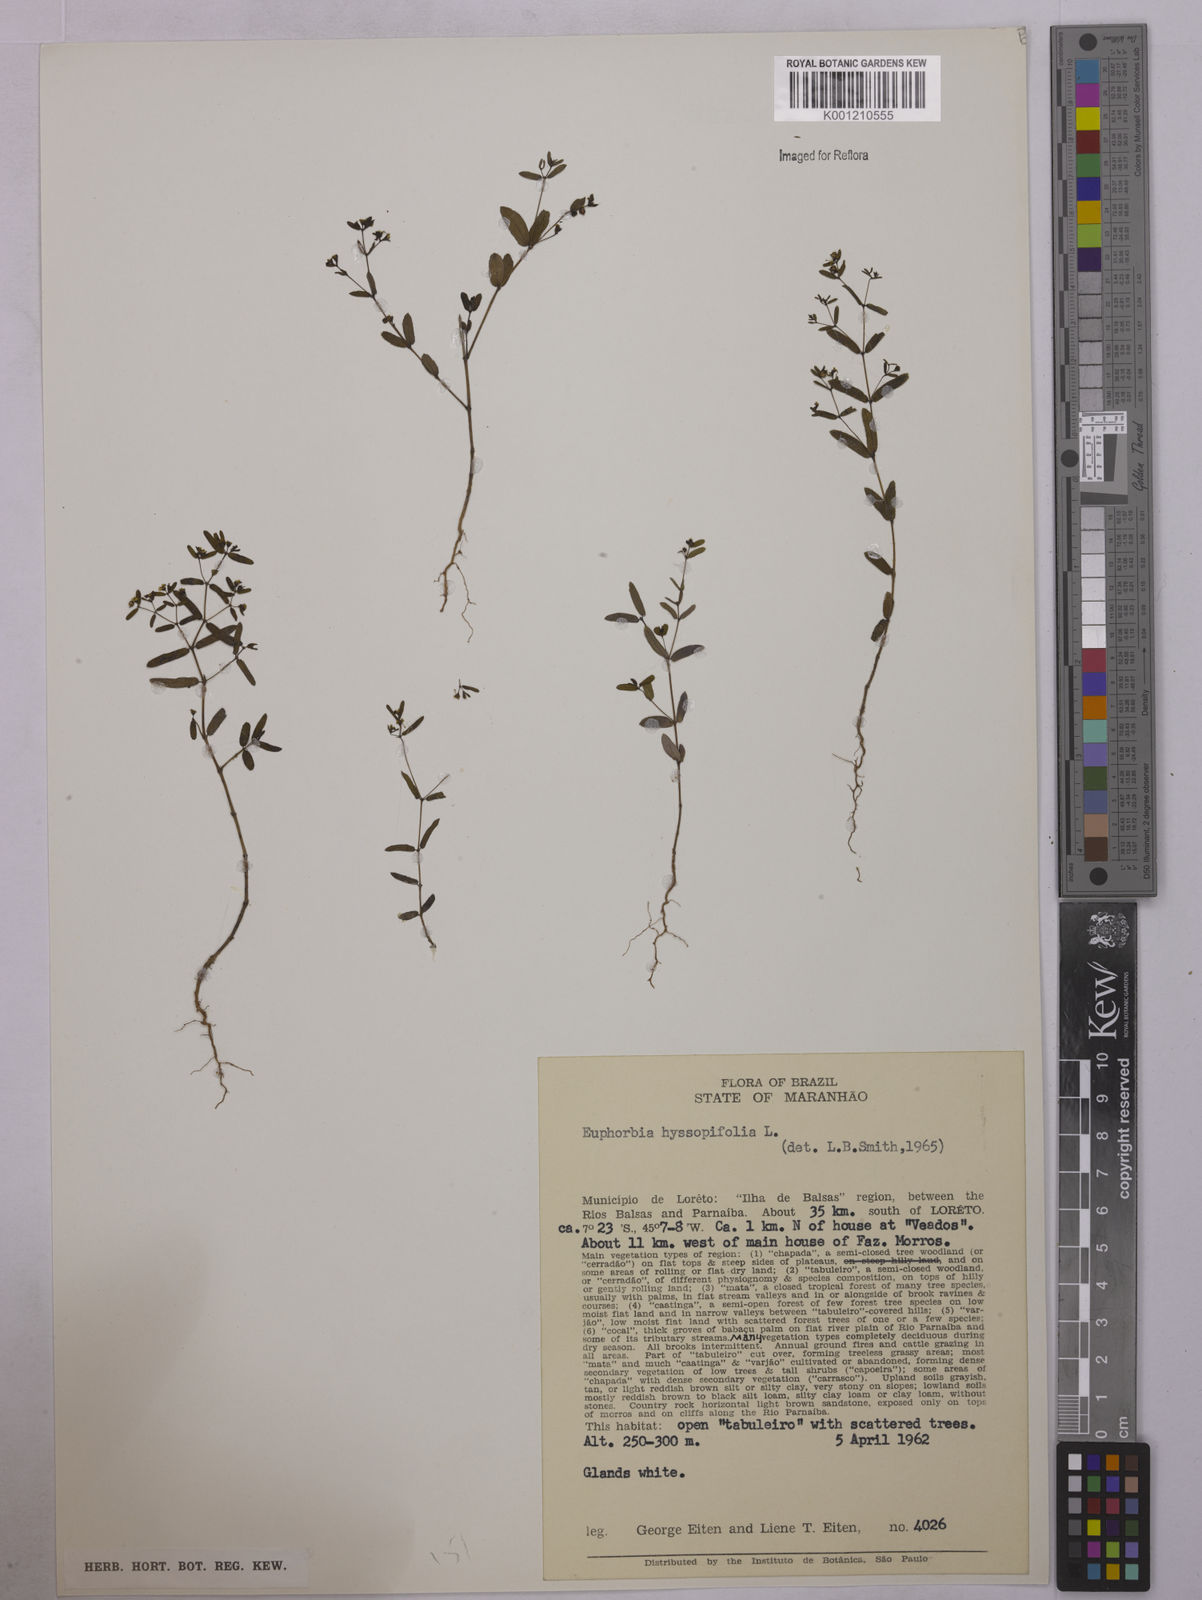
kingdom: Plantae
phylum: Tracheophyta
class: Magnoliopsida
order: Malpighiales
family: Euphorbiaceae
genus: Euphorbia
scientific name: Euphorbia hyssopifolia
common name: Hyssopleaf sandmat
